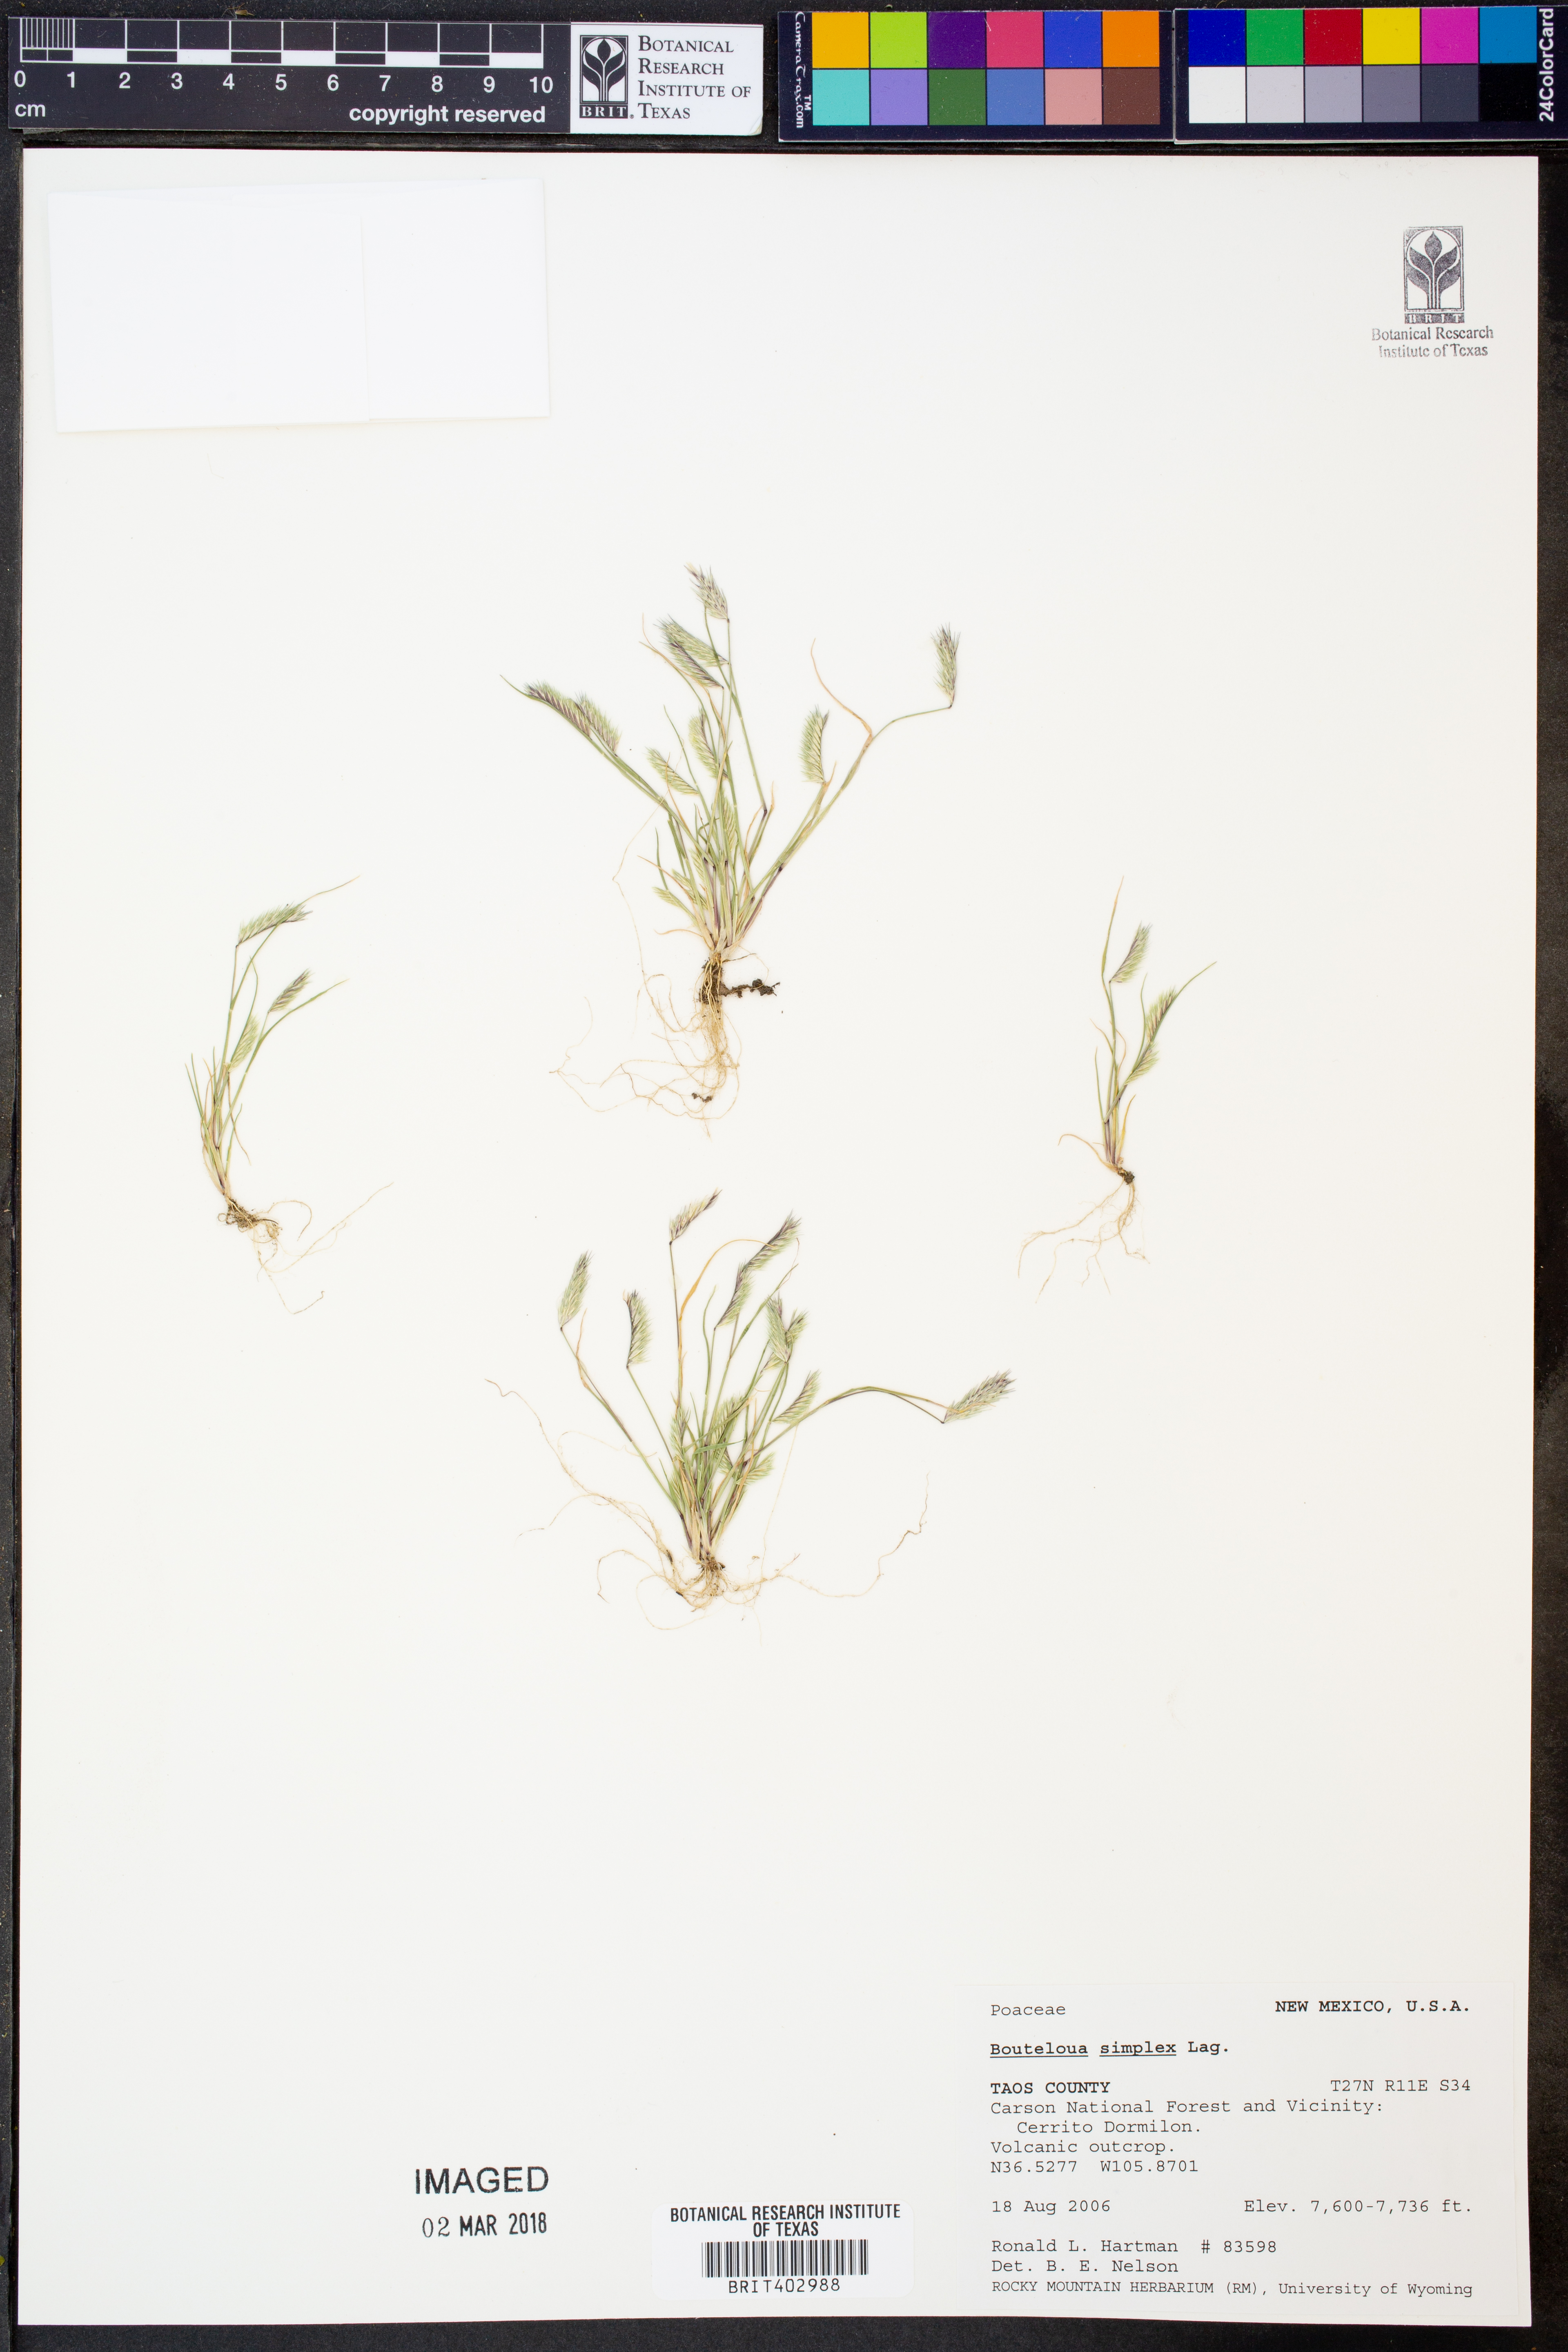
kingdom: Plantae
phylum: Tracheophyta
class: Liliopsida
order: Poales
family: Poaceae
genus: Bouteloua
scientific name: Bouteloua simplex
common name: Mat grama
